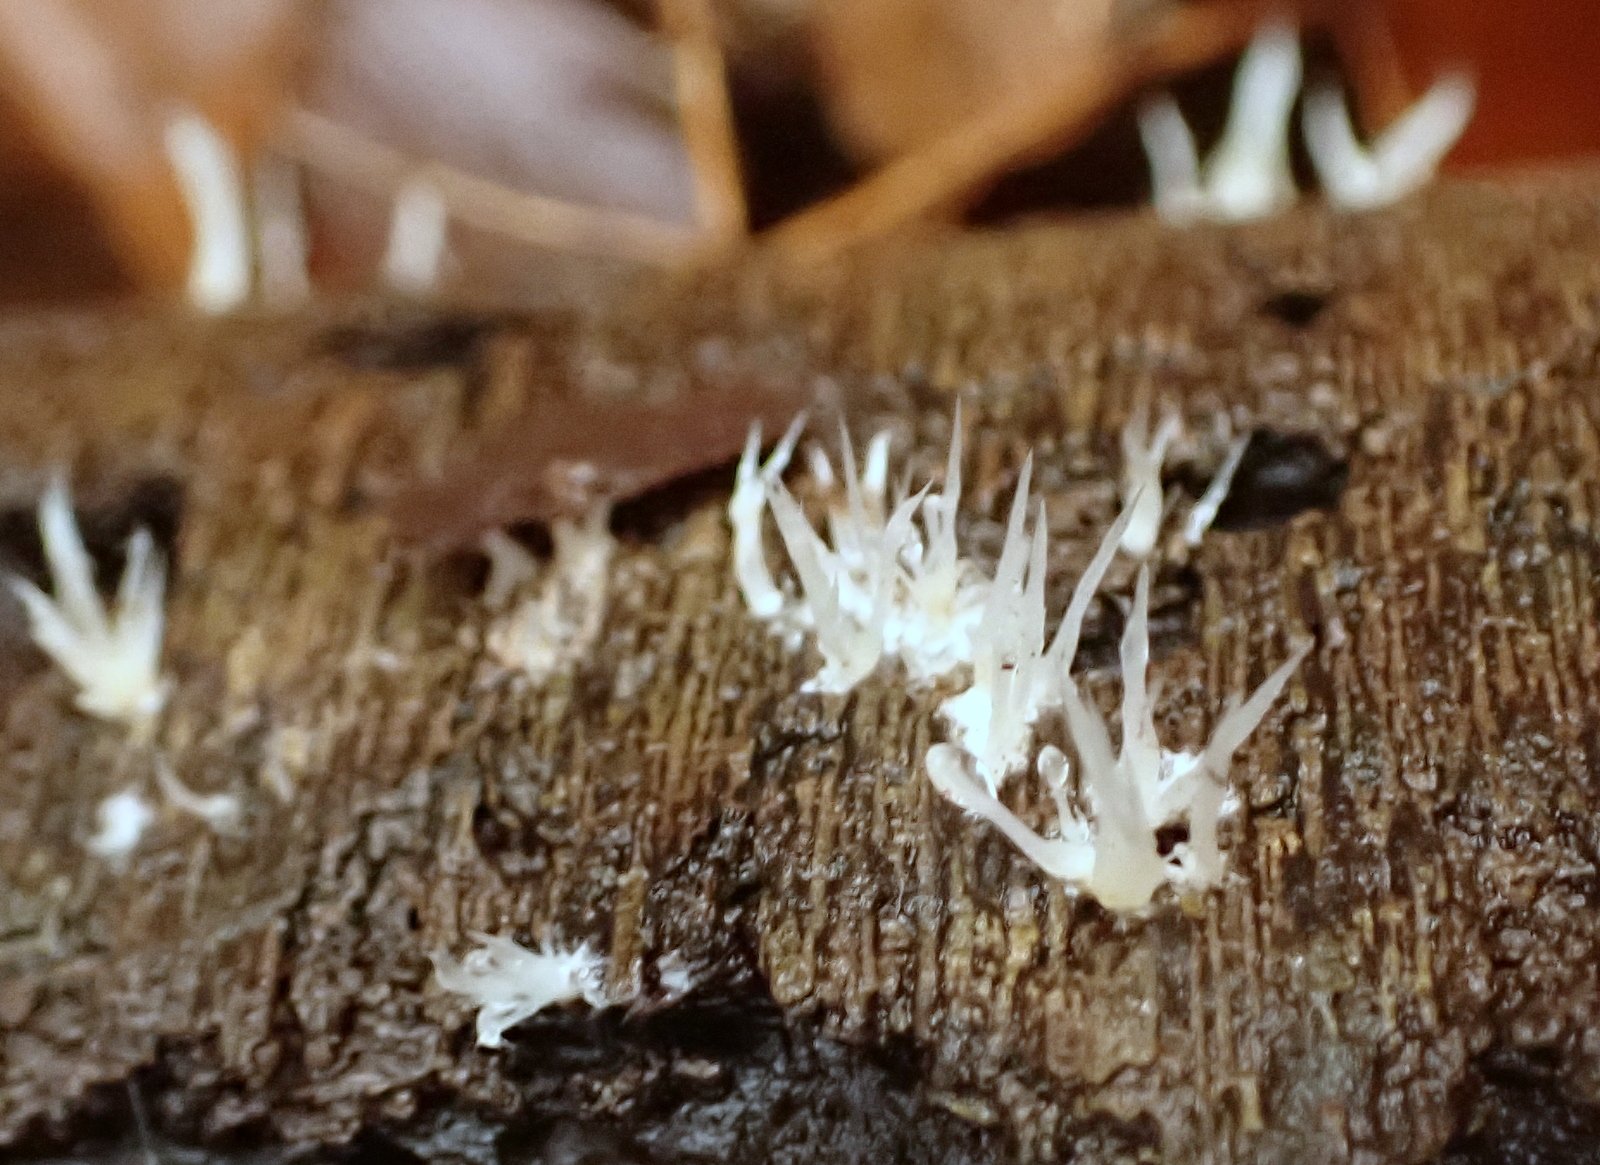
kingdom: Fungi
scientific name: Fungi
